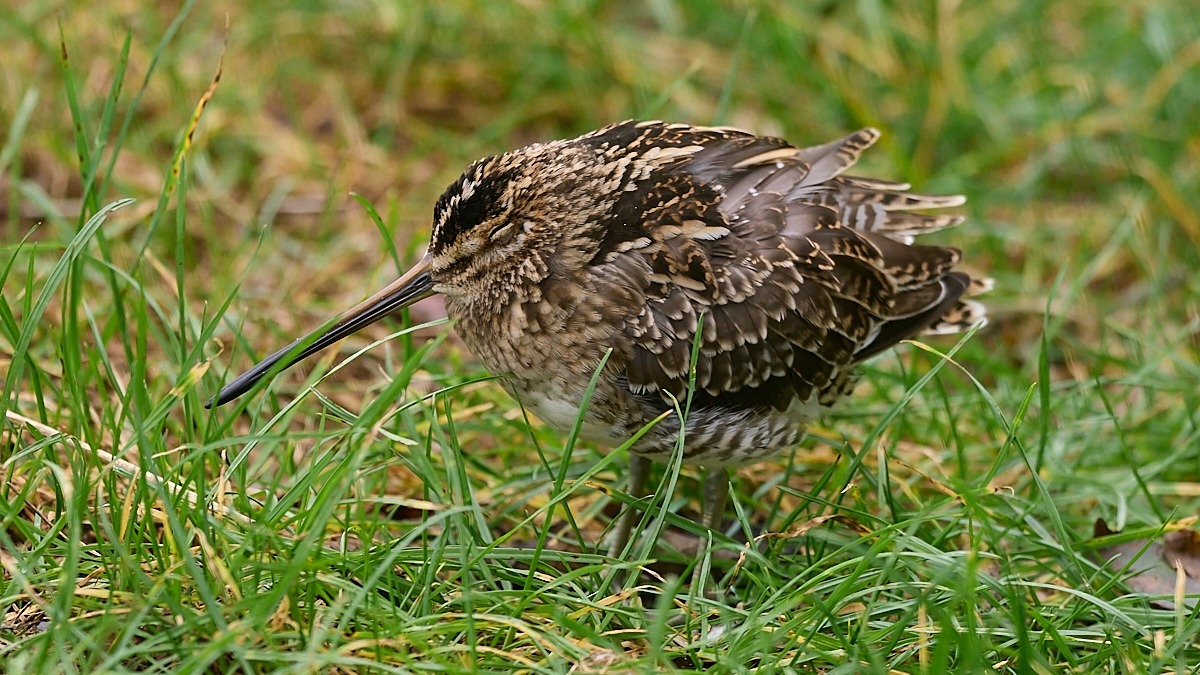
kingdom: Animalia
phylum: Chordata
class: Aves
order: Charadriiformes
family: Scolopacidae
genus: Gallinago
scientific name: Gallinago gallinago
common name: Dobbeltbekkasin
